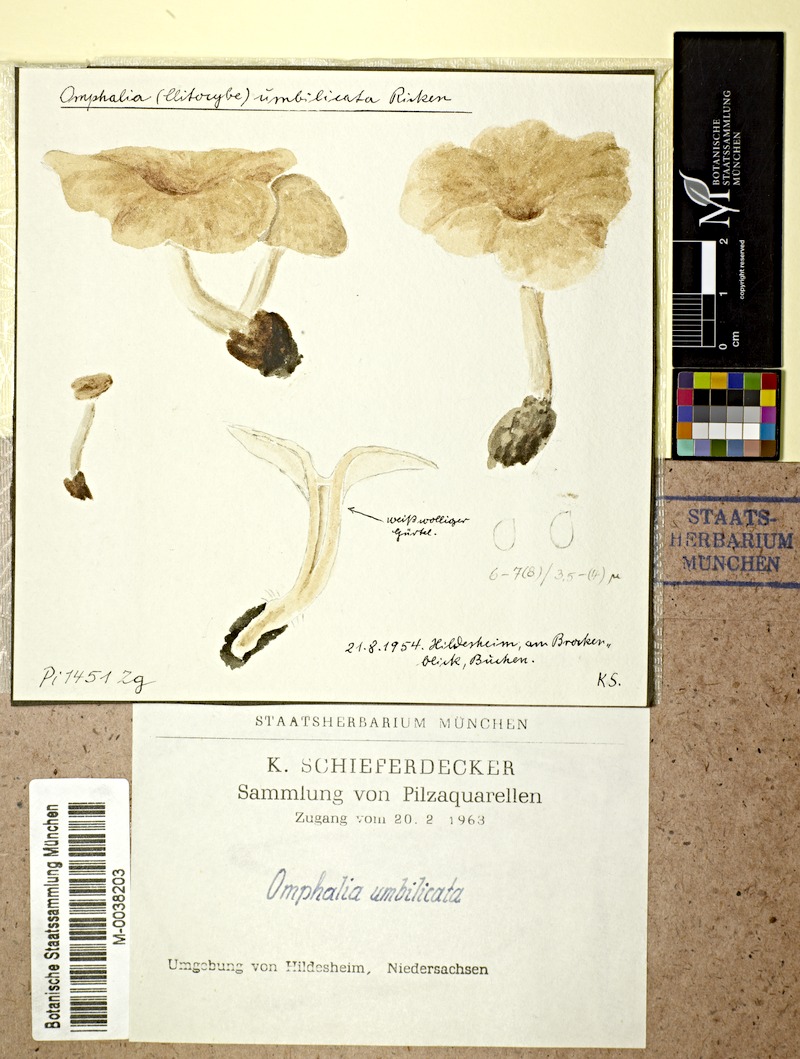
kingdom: Fungi
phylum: Basidiomycota
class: Agaricomycetes
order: Agaricales
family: Tricholomataceae
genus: Clitocybe
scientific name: Clitocybe umbilicata
